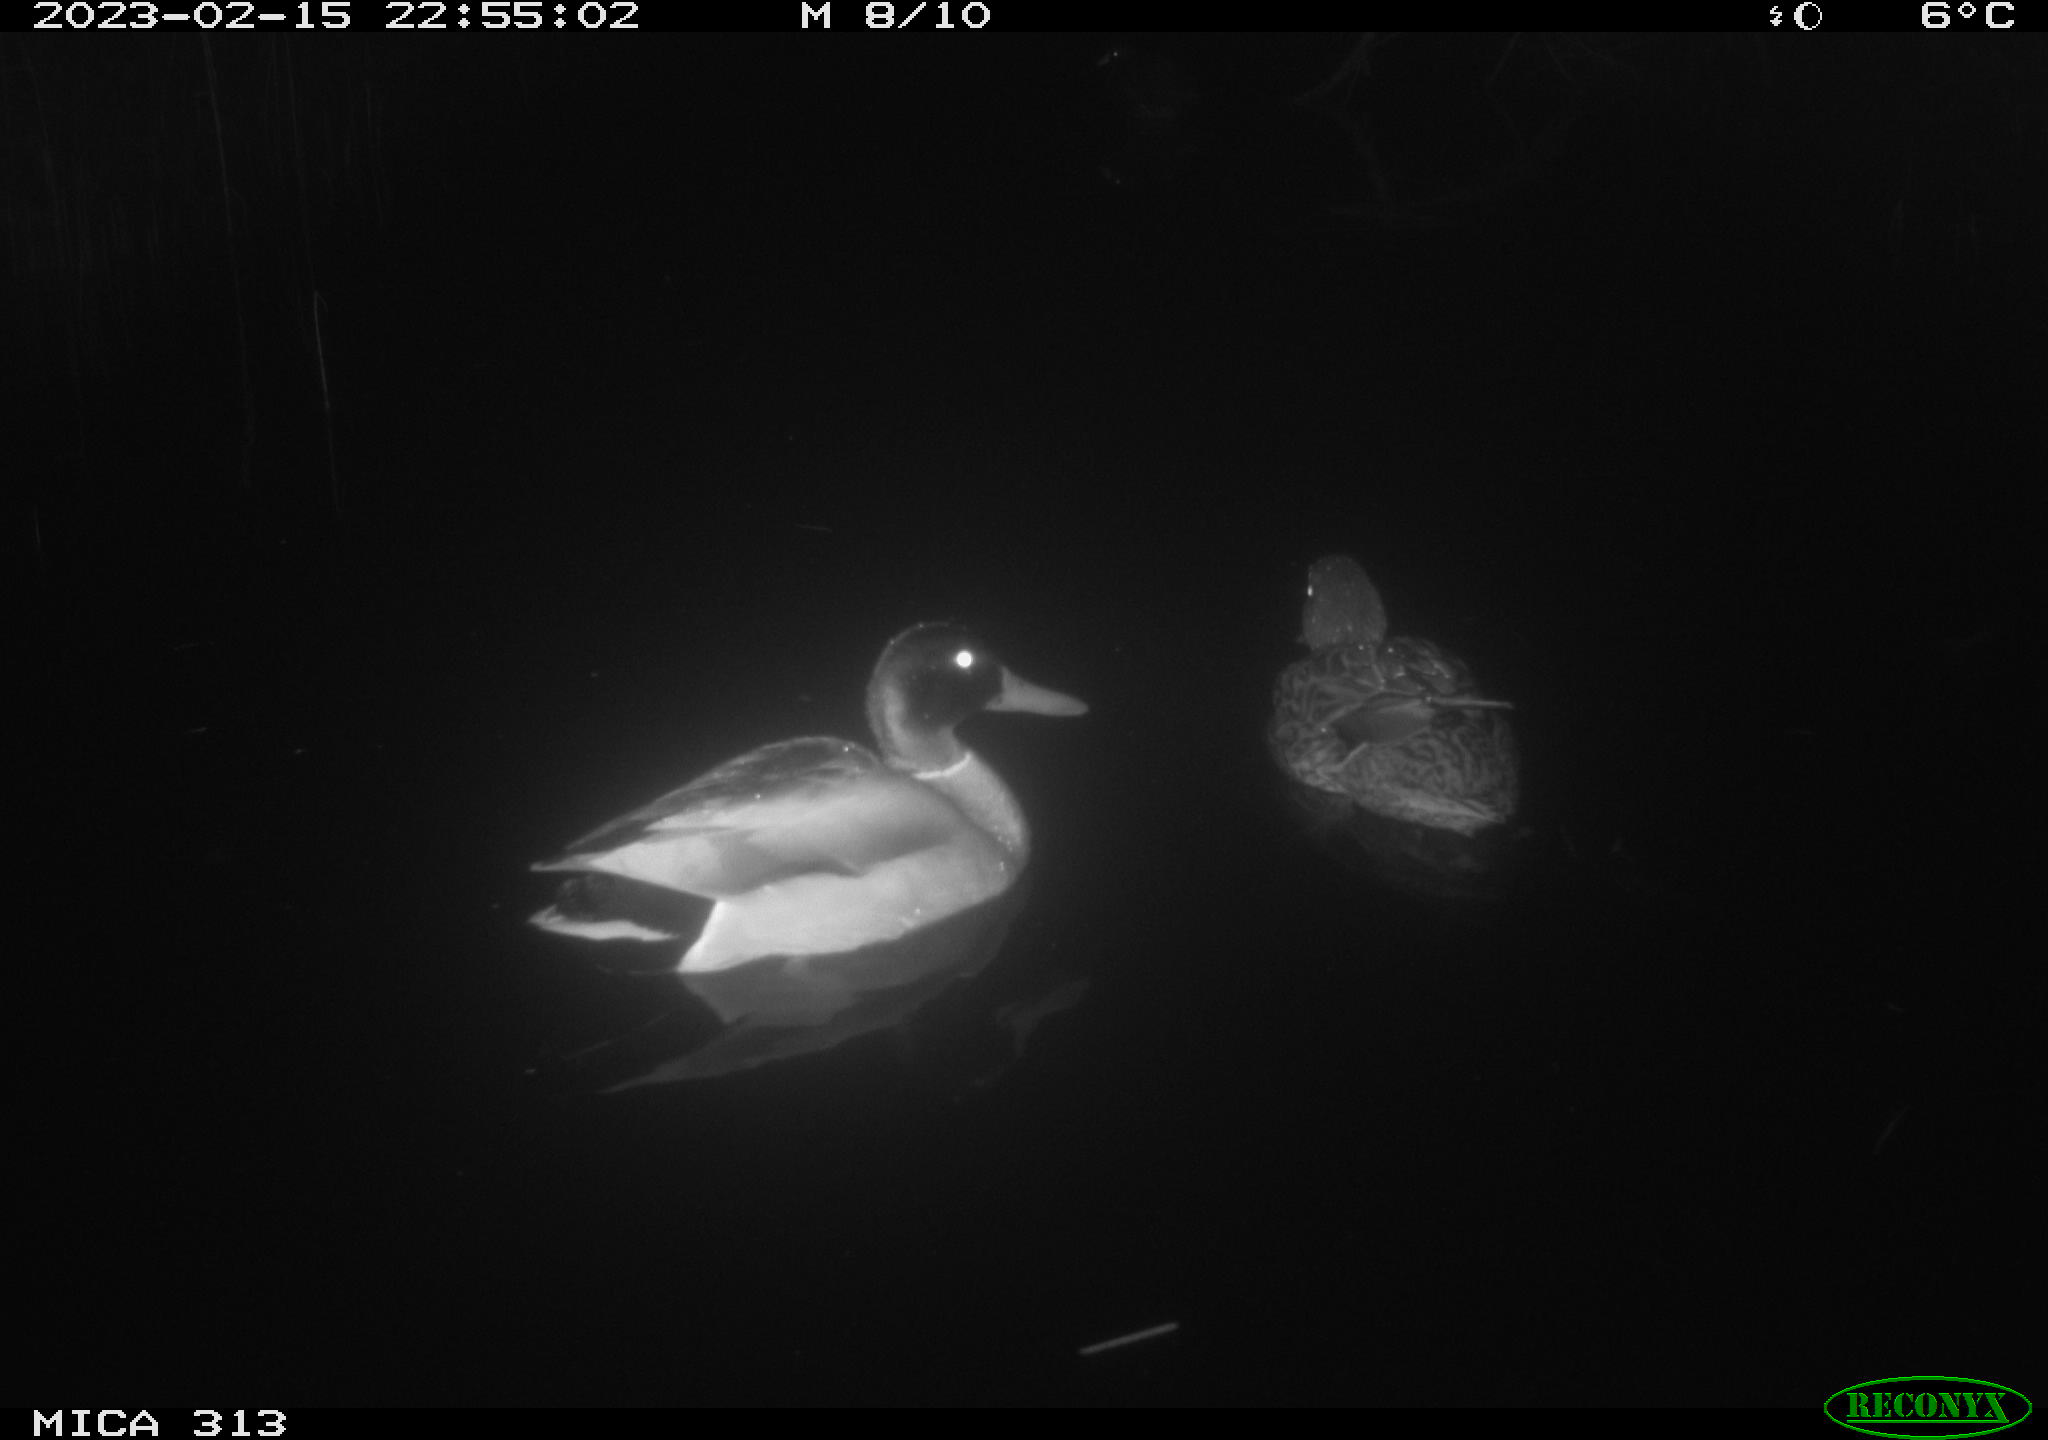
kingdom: Animalia
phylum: Chordata
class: Aves
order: Anseriformes
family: Anatidae
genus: Anas
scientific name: Anas
